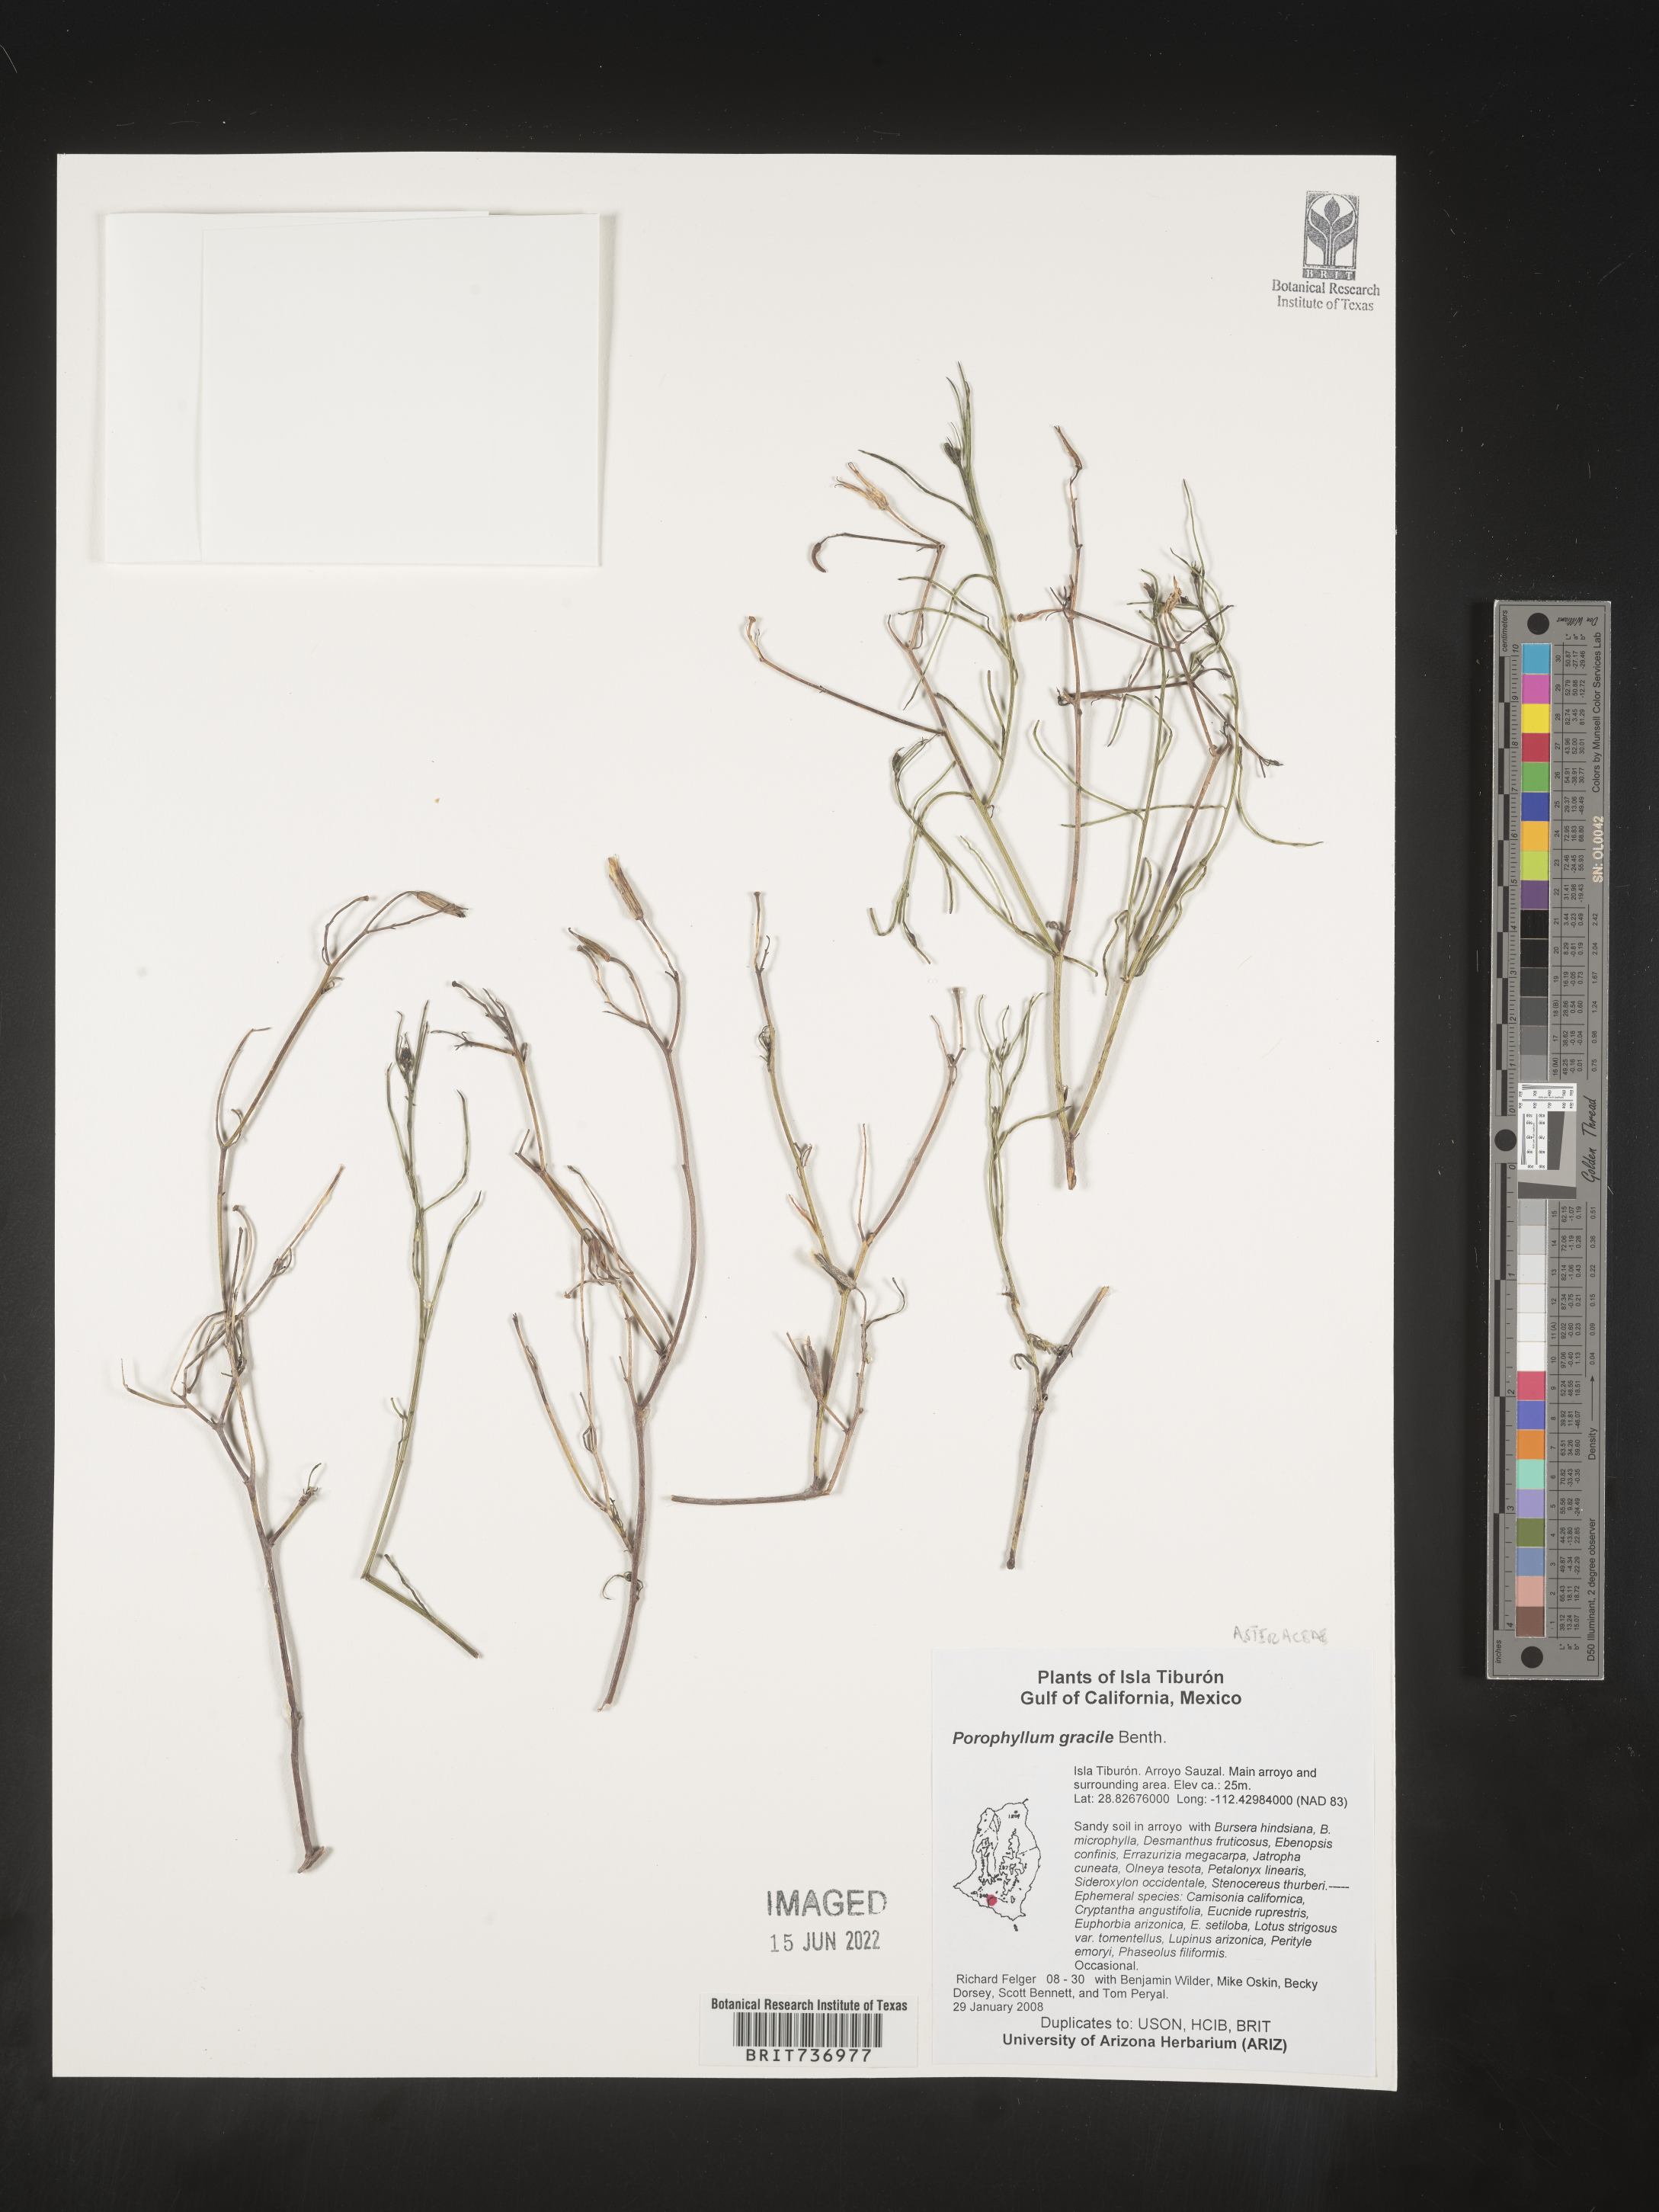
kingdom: Plantae
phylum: Tracheophyta
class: Magnoliopsida
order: Asterales
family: Asteraceae
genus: Porophyllum
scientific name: Porophyllum
